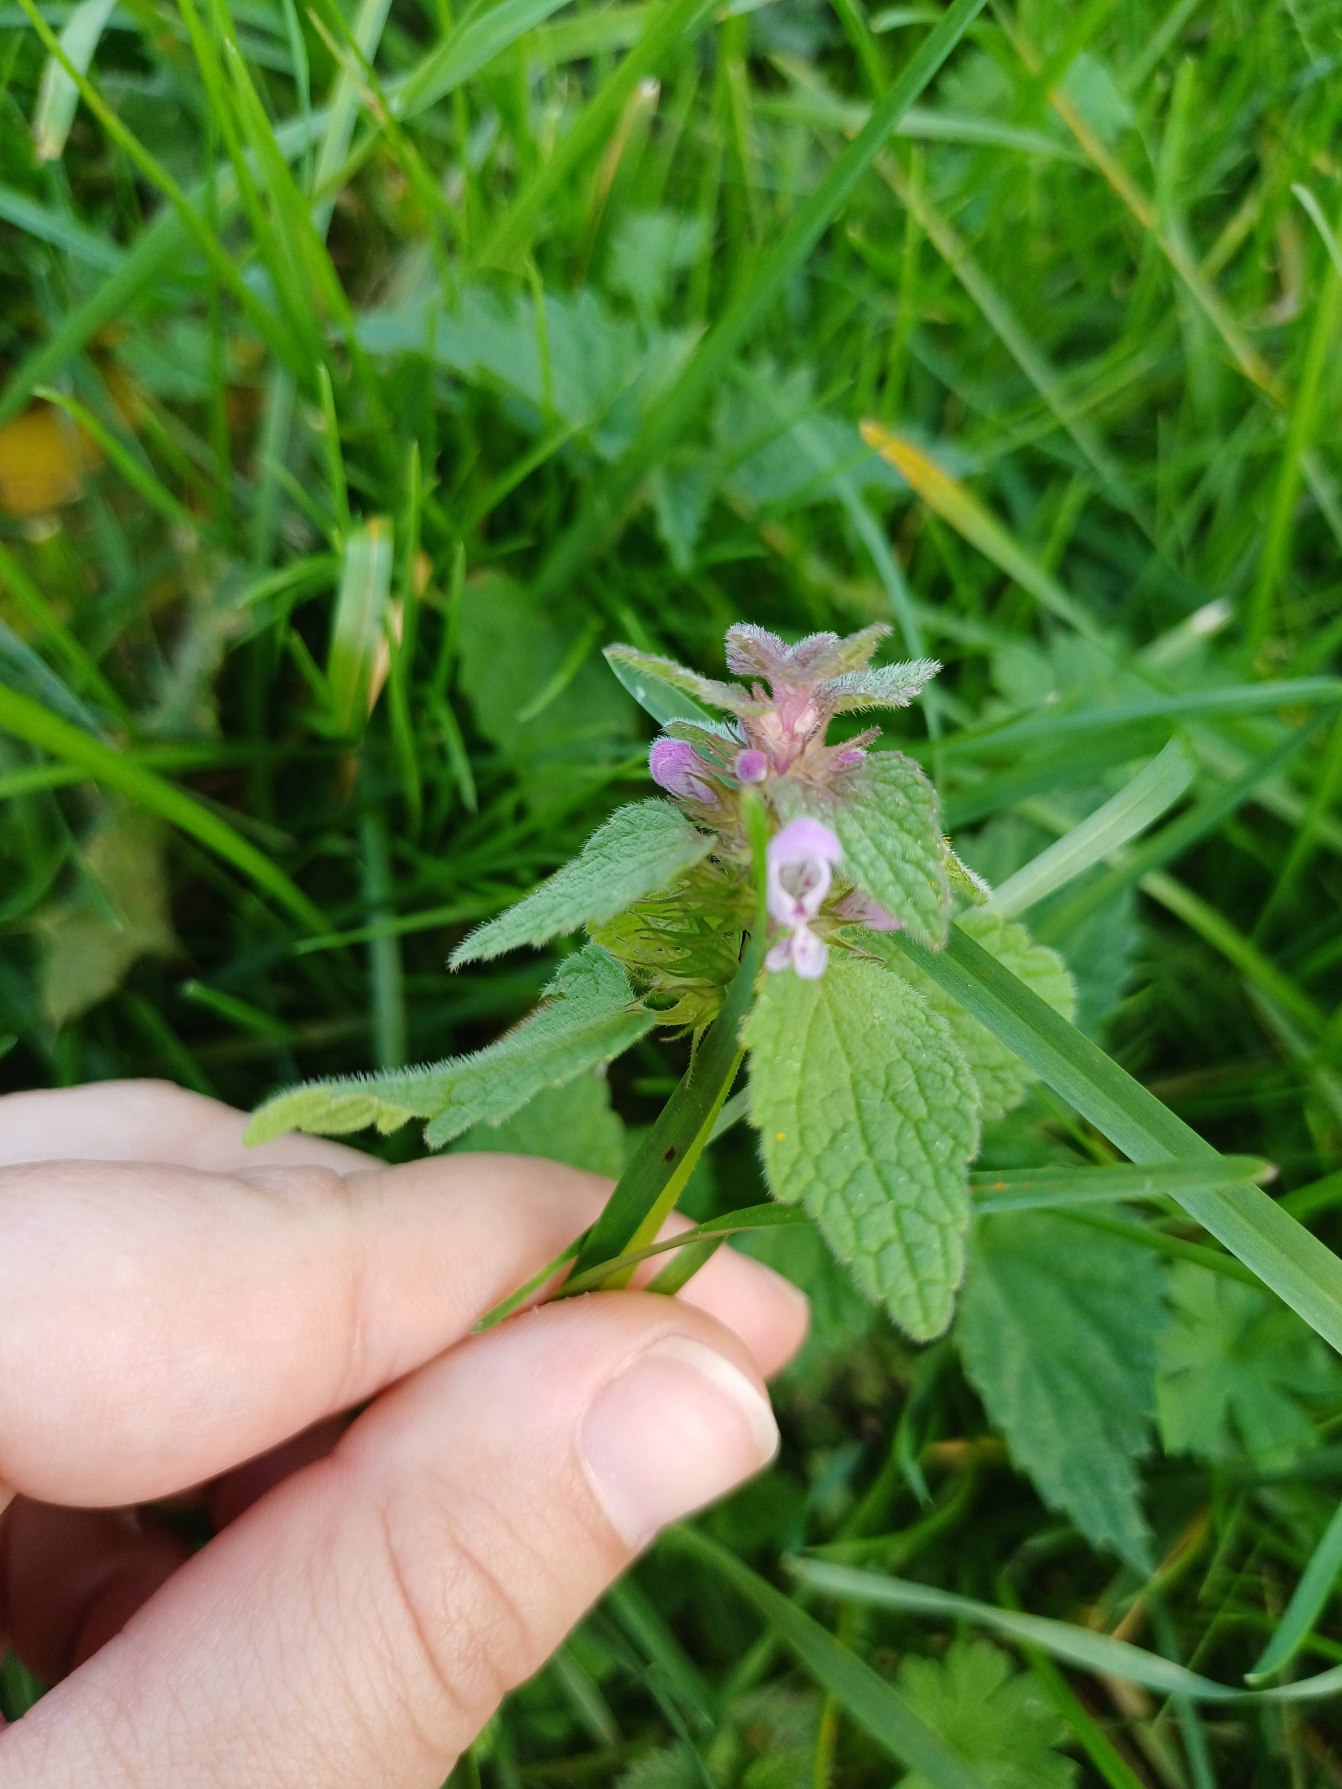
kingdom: Plantae
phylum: Tracheophyta
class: Magnoliopsida
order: Lamiales
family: Lamiaceae
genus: Lamium
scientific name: Lamium purpureum
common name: Rød tvetand
